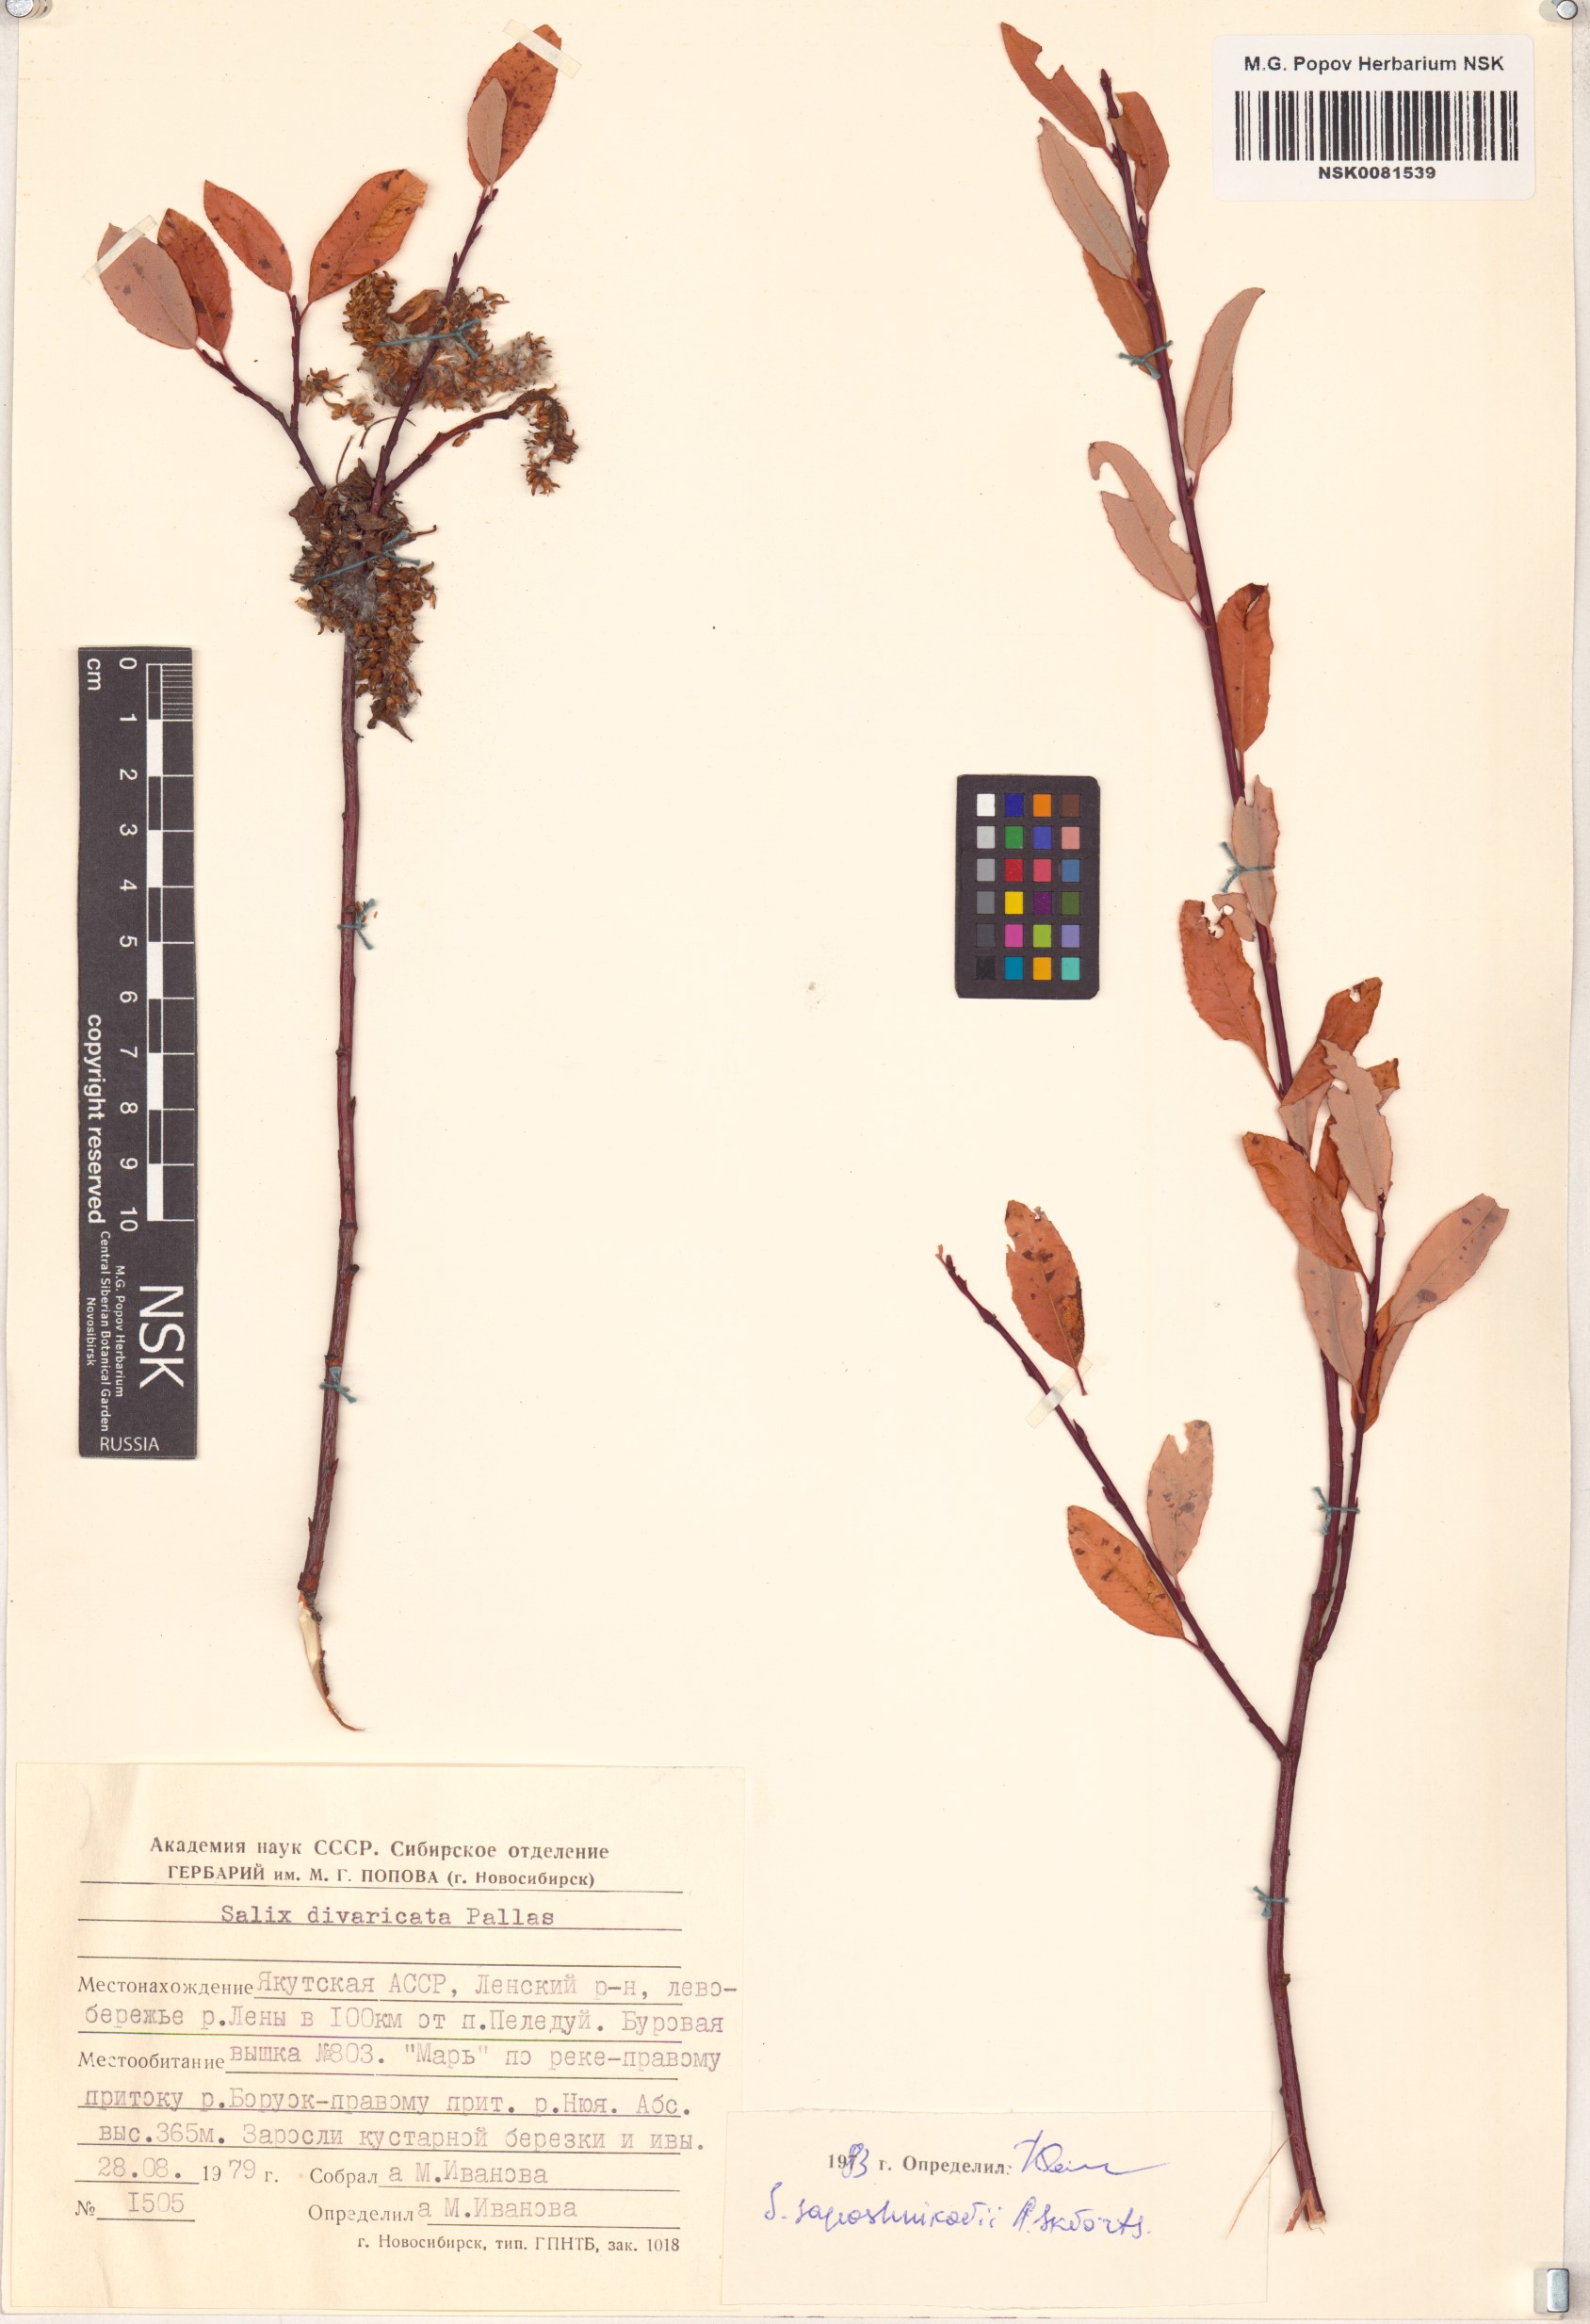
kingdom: Plantae
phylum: Tracheophyta
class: Magnoliopsida
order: Malpighiales
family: Salicaceae
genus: Salix
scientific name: Salix saposhnikovii
